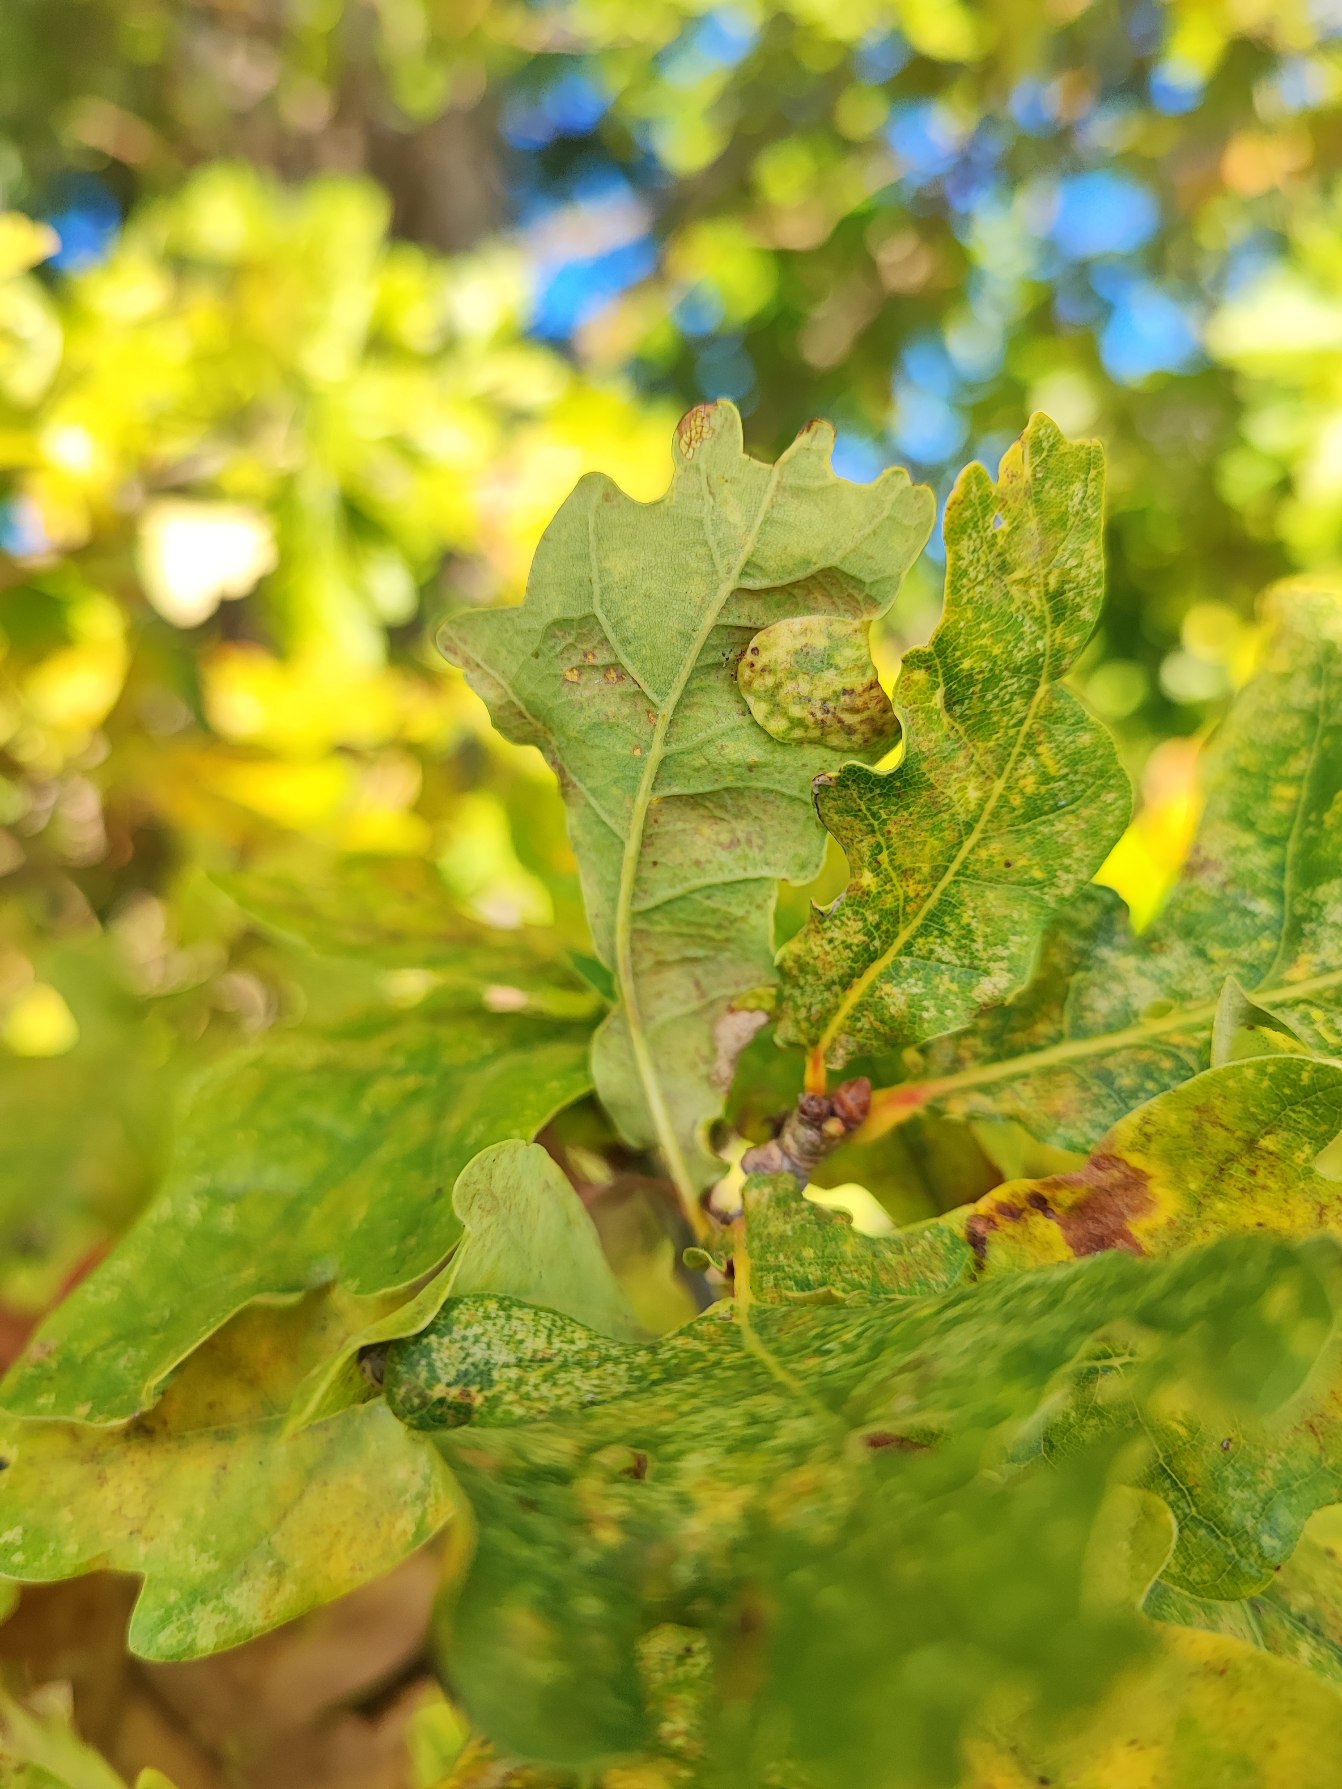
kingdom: Animalia
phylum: Arthropoda
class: Insecta
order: Diptera
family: Cecidomyiidae
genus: Macrodiplosis
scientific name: Macrodiplosis pustularis
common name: Marmorgalmyg
